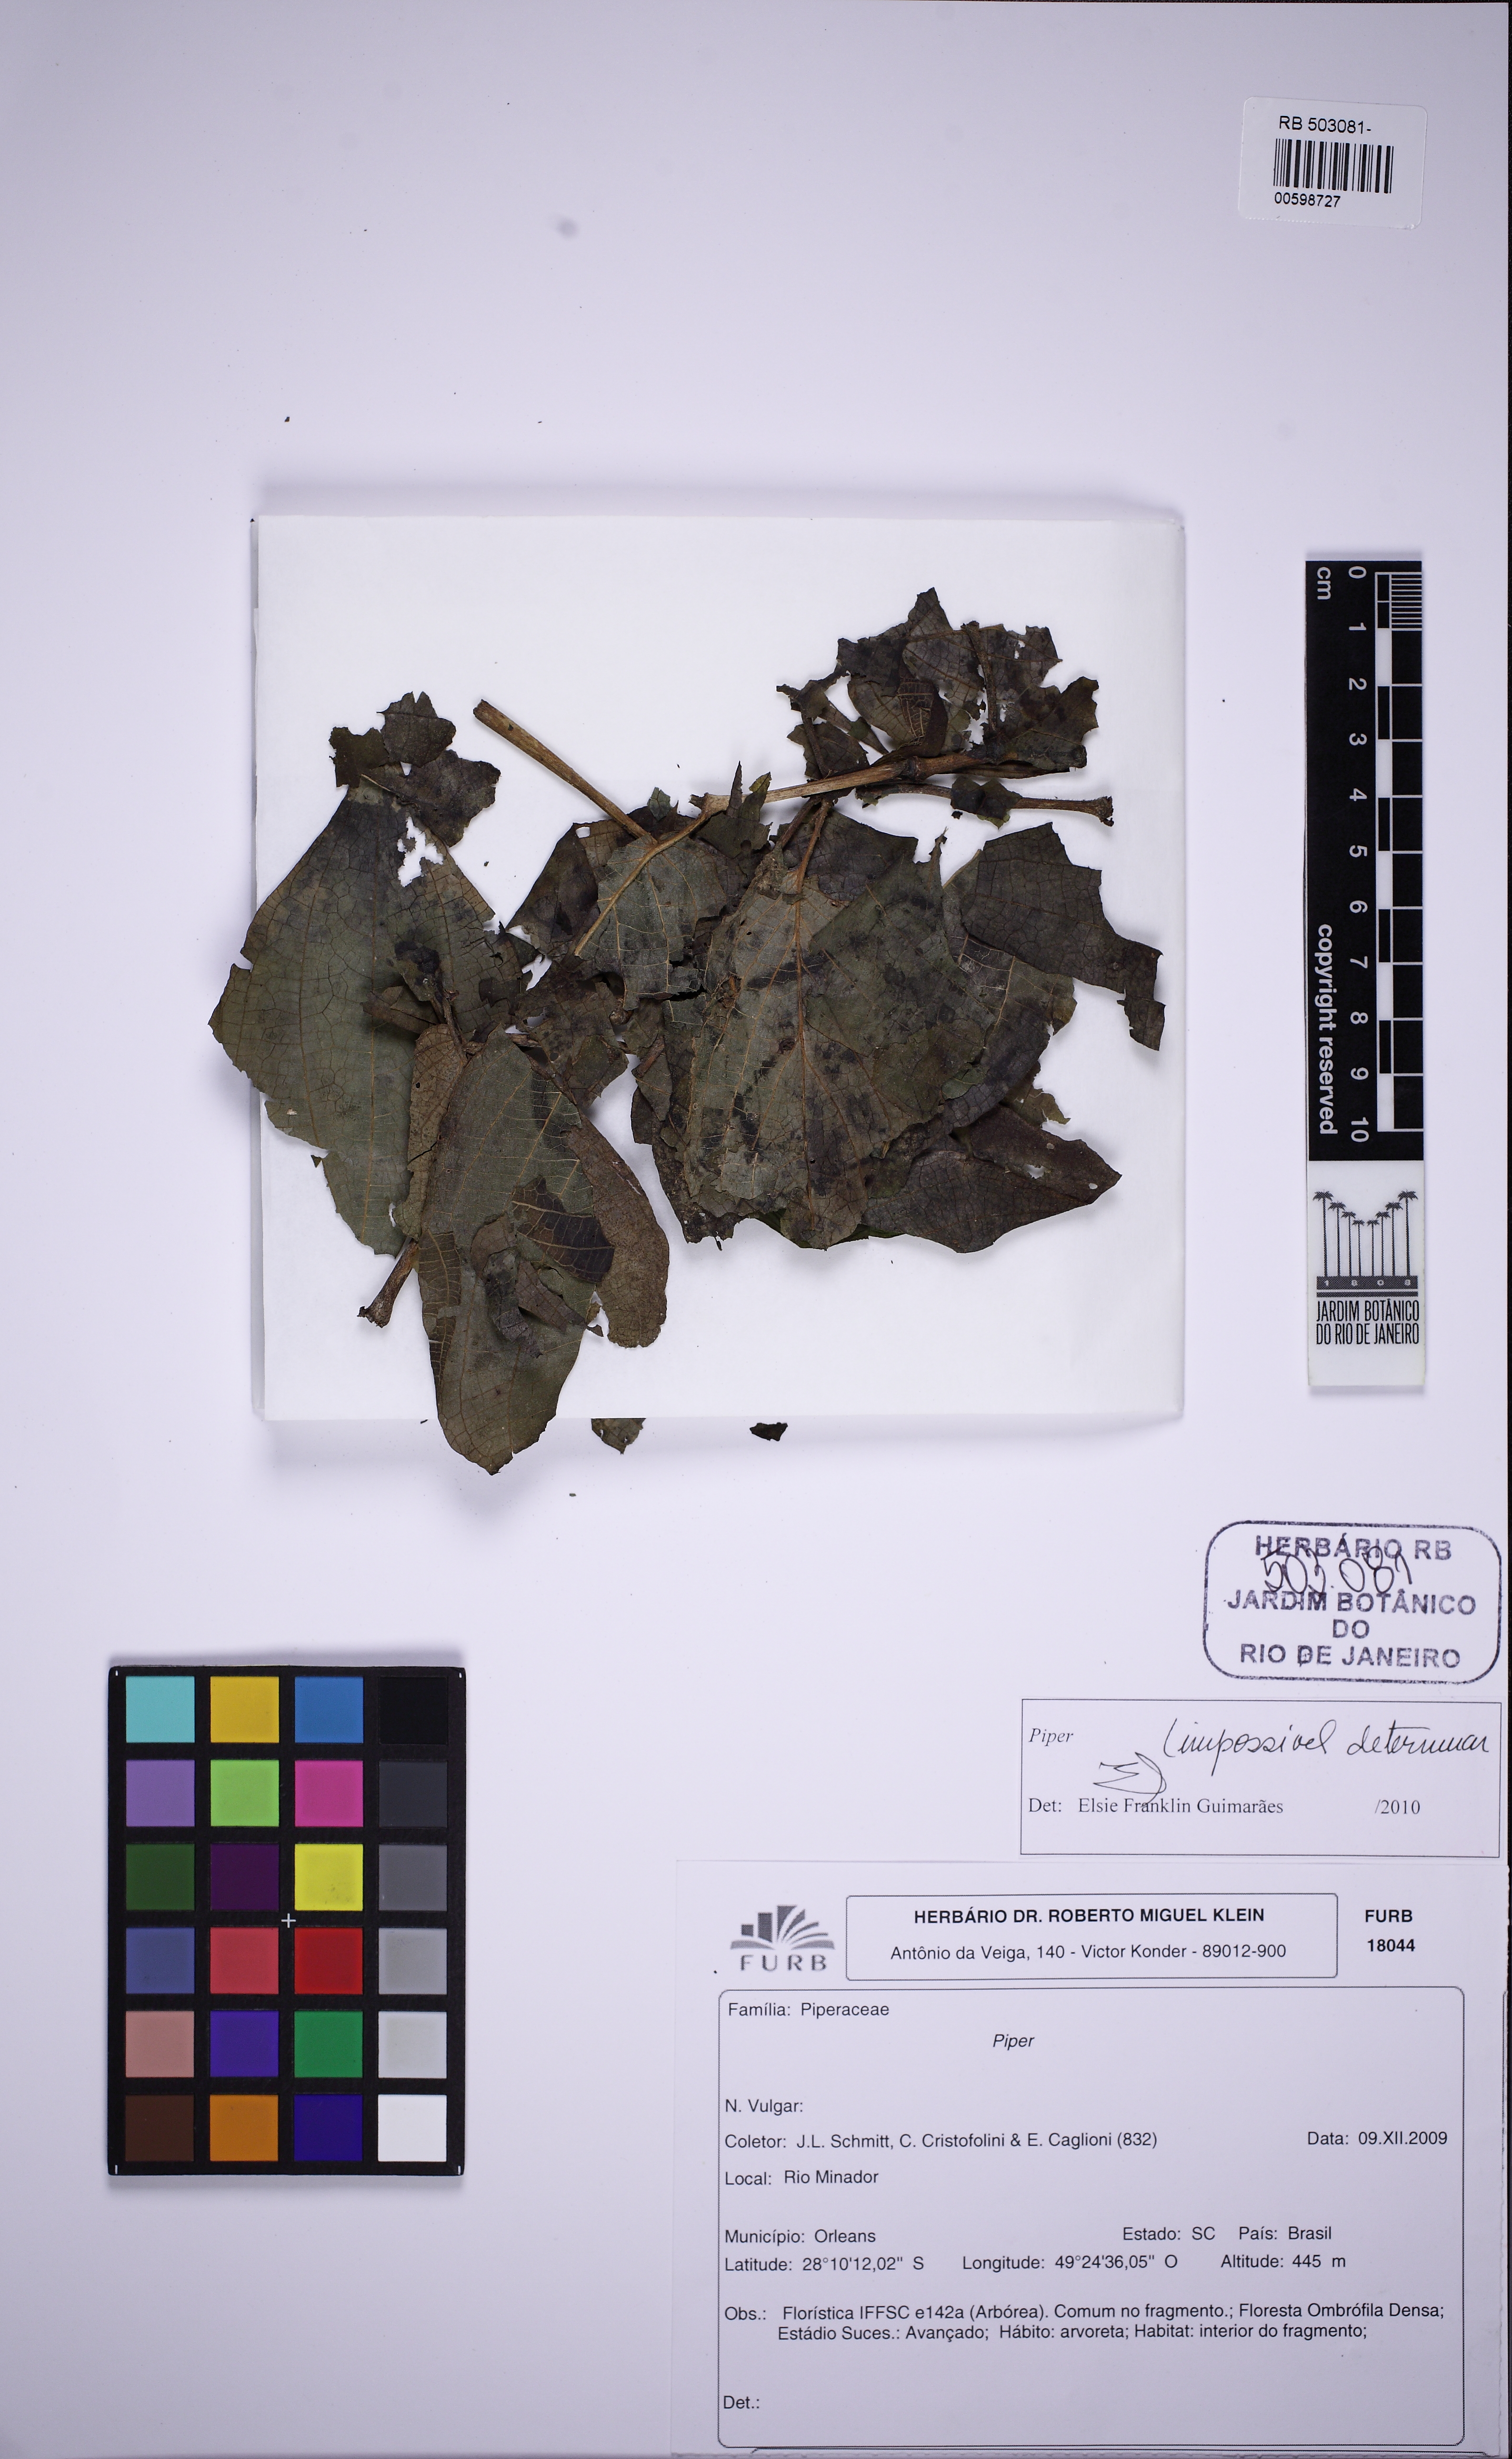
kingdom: Plantae
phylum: Tracheophyta
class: Magnoliopsida
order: Piperales
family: Piperaceae
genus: Piper
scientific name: Piper
